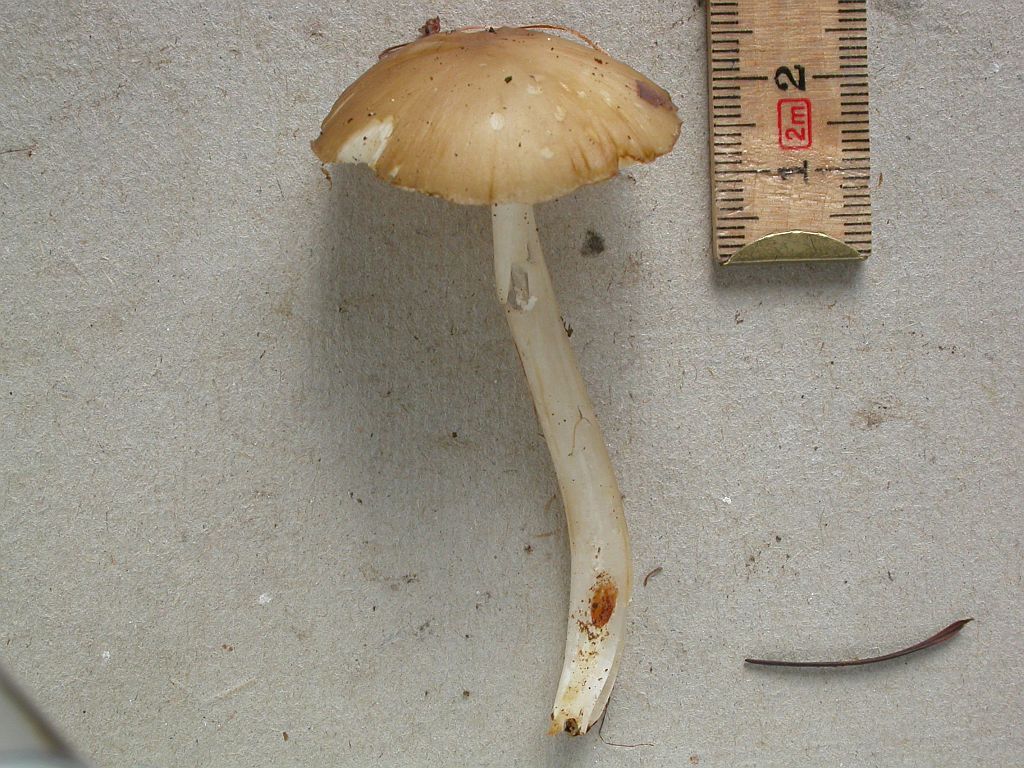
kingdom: Fungi
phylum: Basidiomycota
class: Agaricomycetes
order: Agaricales
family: Porotheleaceae
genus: Hydropodia
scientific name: Hydropodia subalpina
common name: vår-fnugfod
